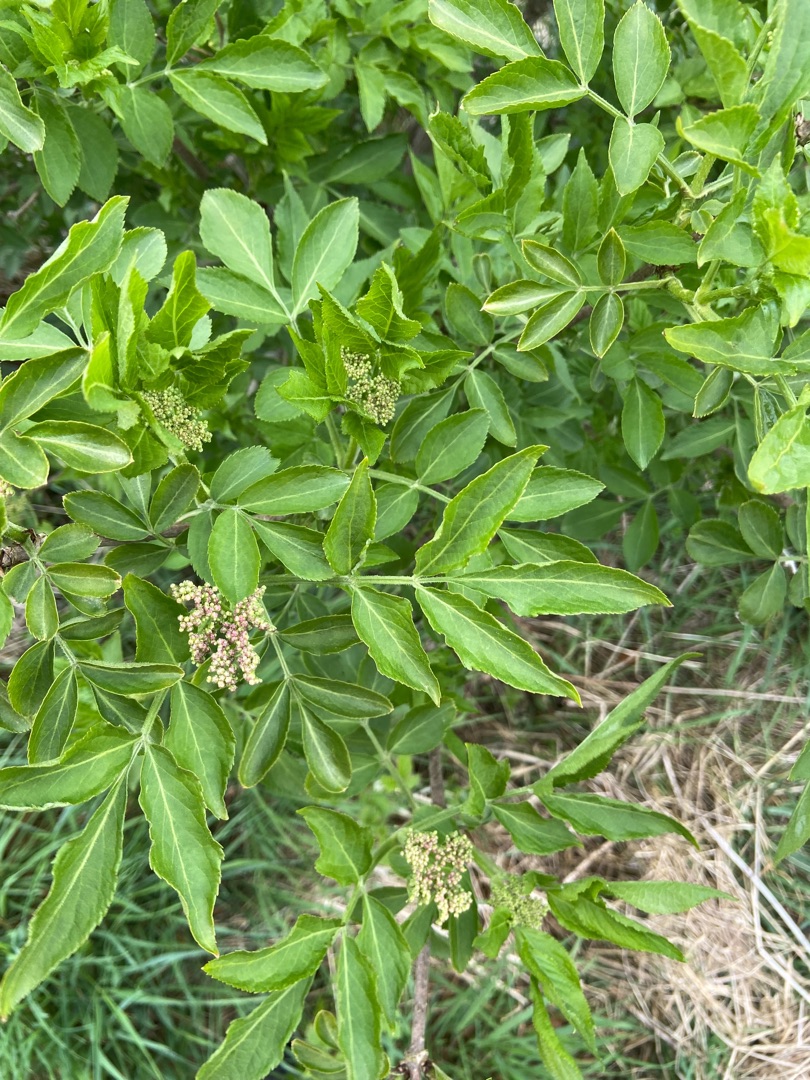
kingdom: Plantae
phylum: Tracheophyta
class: Magnoliopsida
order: Dipsacales
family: Viburnaceae
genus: Sambucus
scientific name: Sambucus nigra
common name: Almindelig hyld
